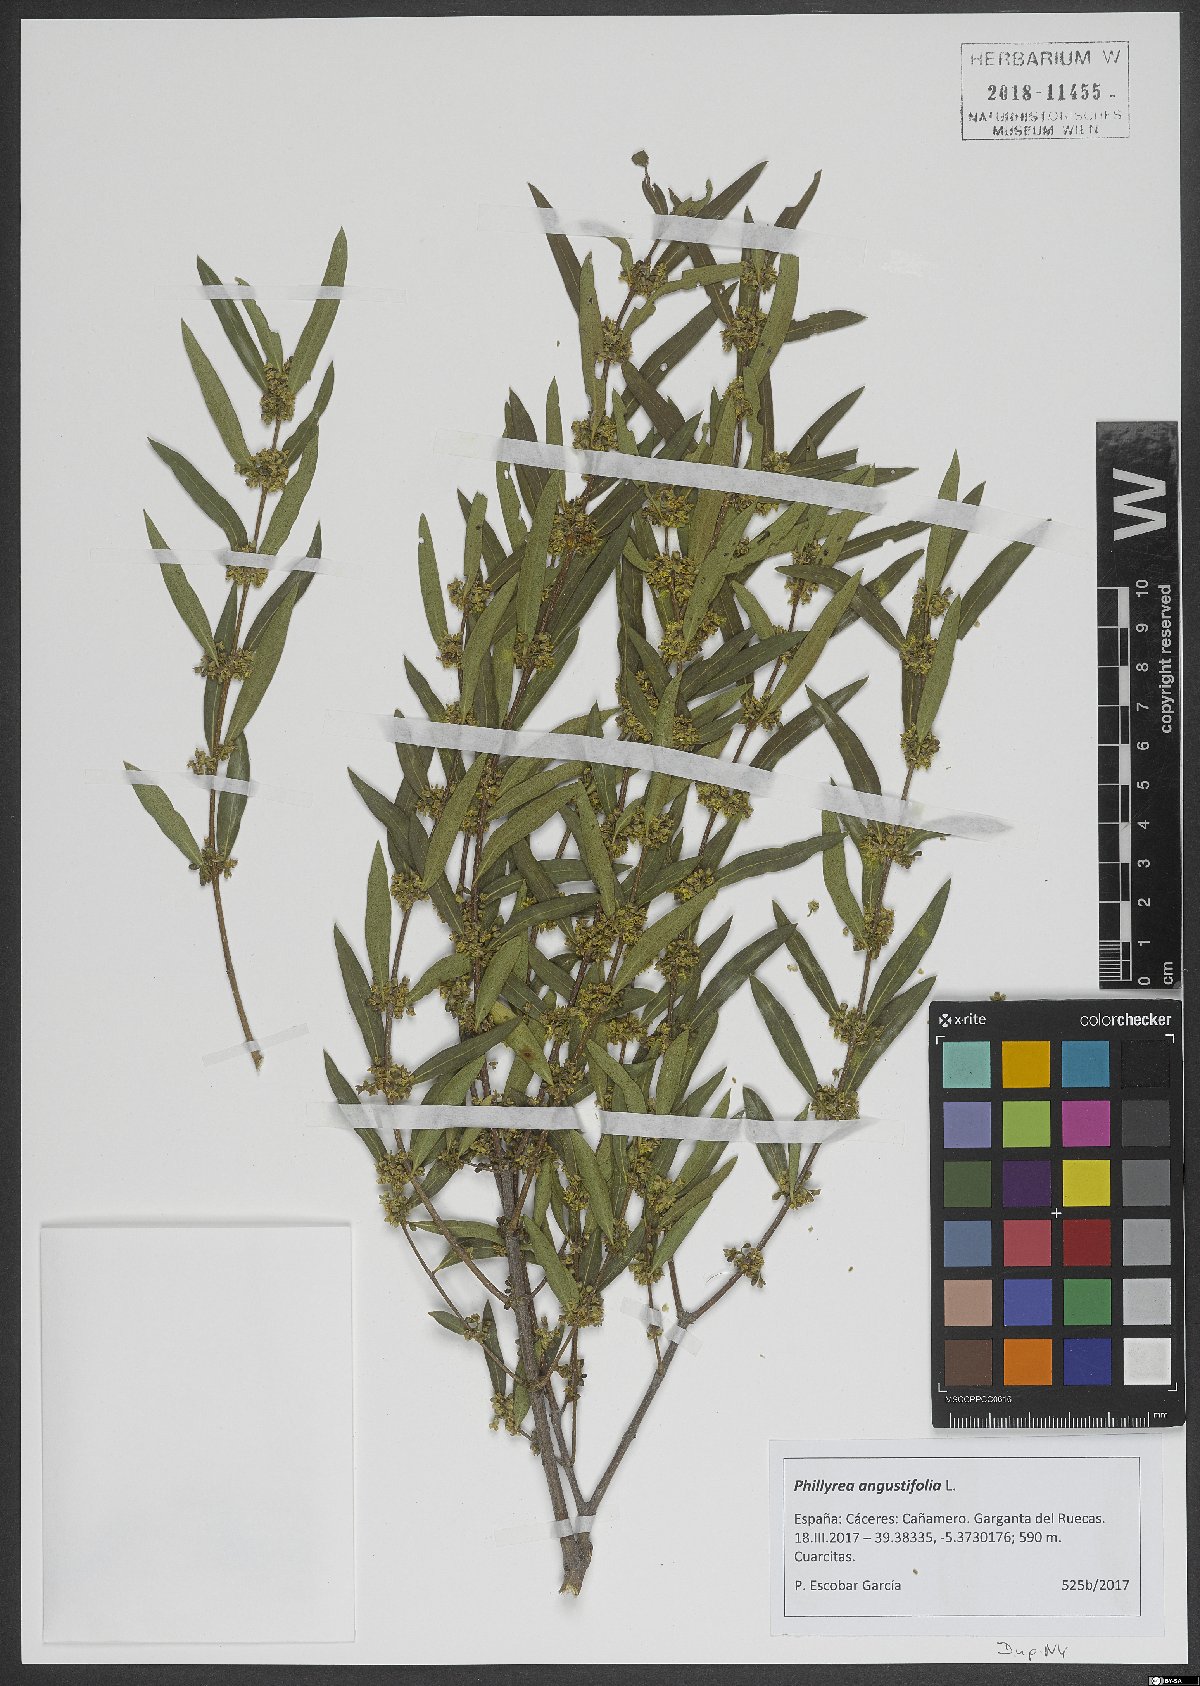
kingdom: Plantae
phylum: Tracheophyta
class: Magnoliopsida
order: Lamiales
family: Oleaceae
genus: Phillyrea
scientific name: Phillyrea angustifolia
